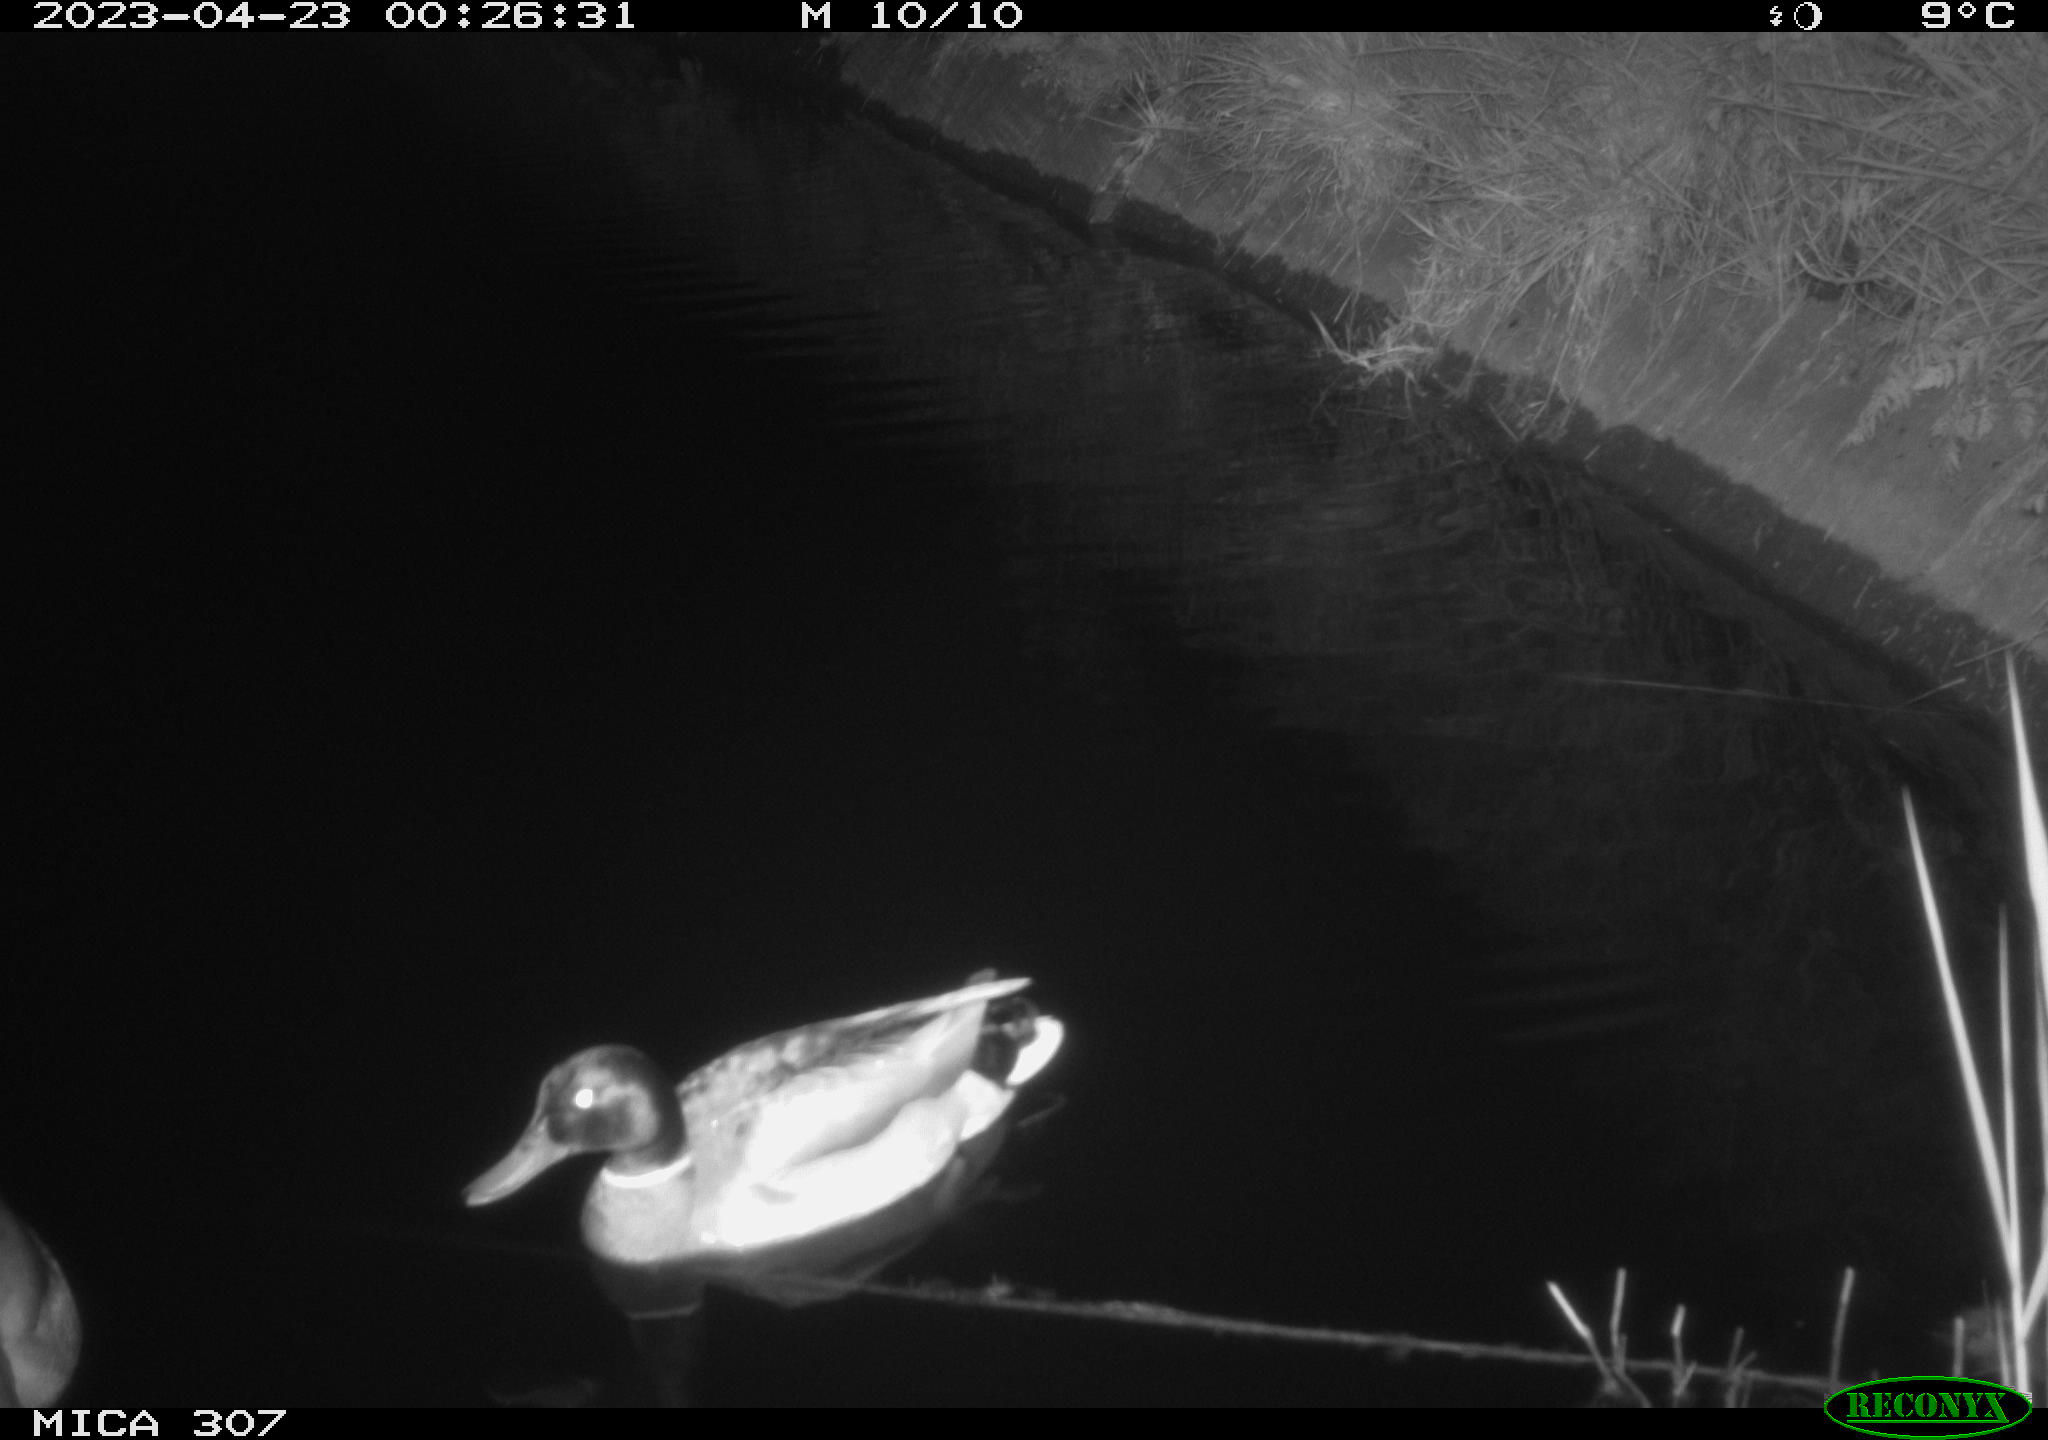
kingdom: Animalia
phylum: Chordata
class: Aves
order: Anseriformes
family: Anatidae
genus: Anas
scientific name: Anas
